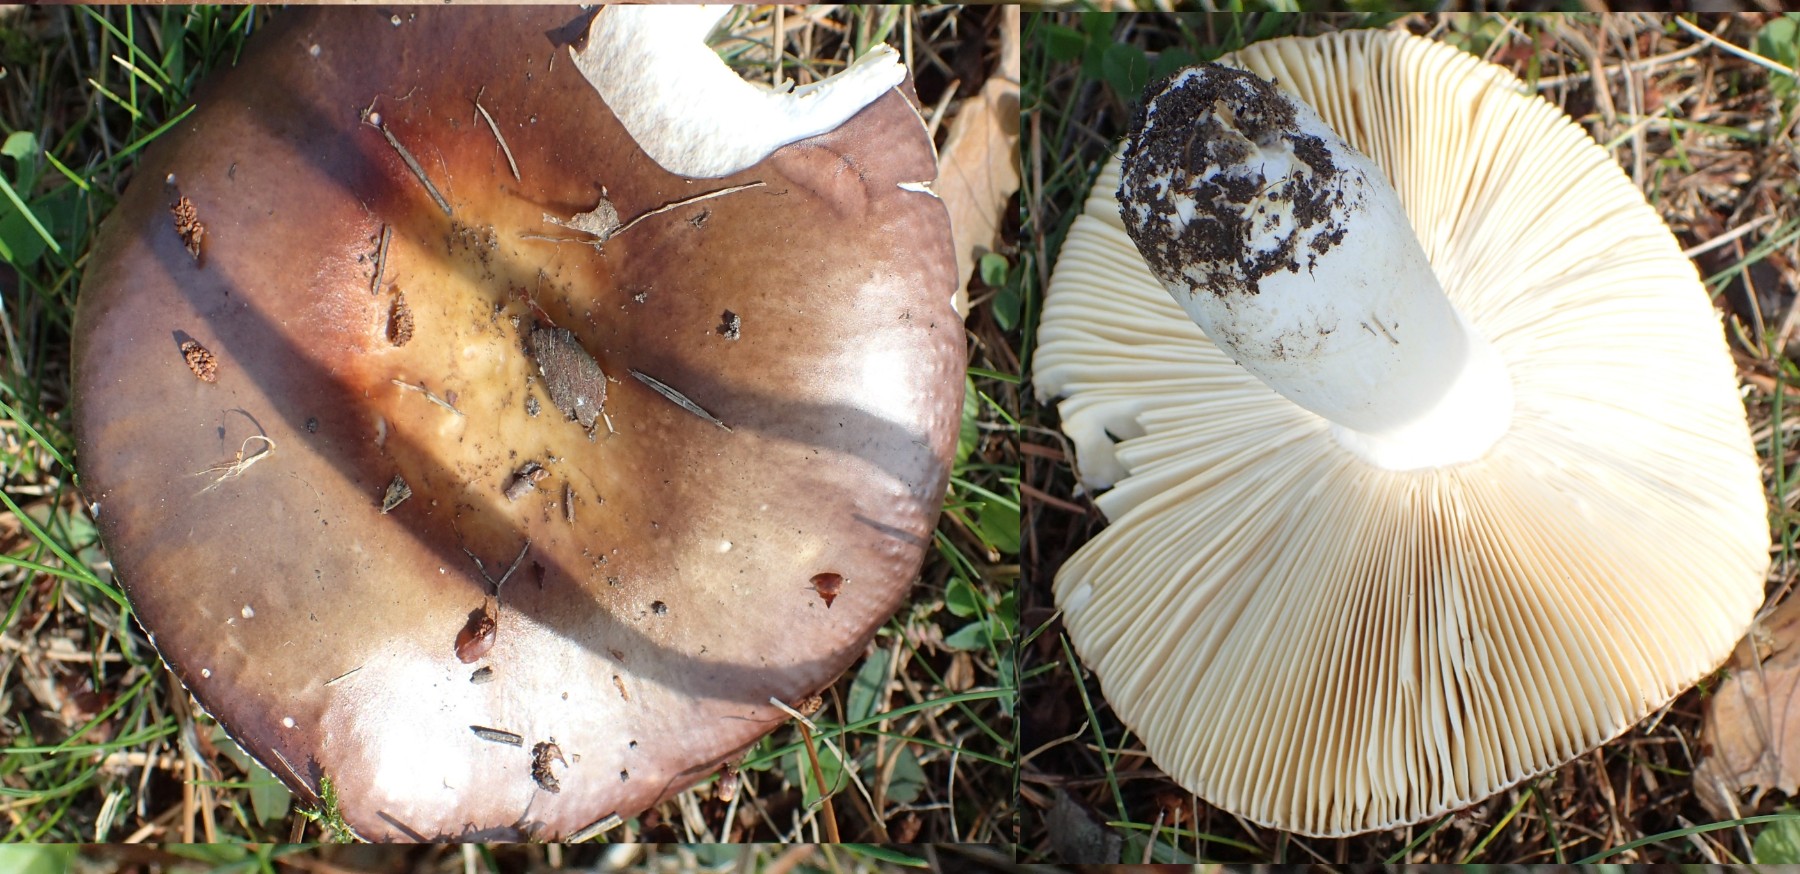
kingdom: Fungi
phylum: Basidiomycota
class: Agaricomycetes
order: Russulales
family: Russulaceae
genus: Russula
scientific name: Russula integra
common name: mandel-skørhat
